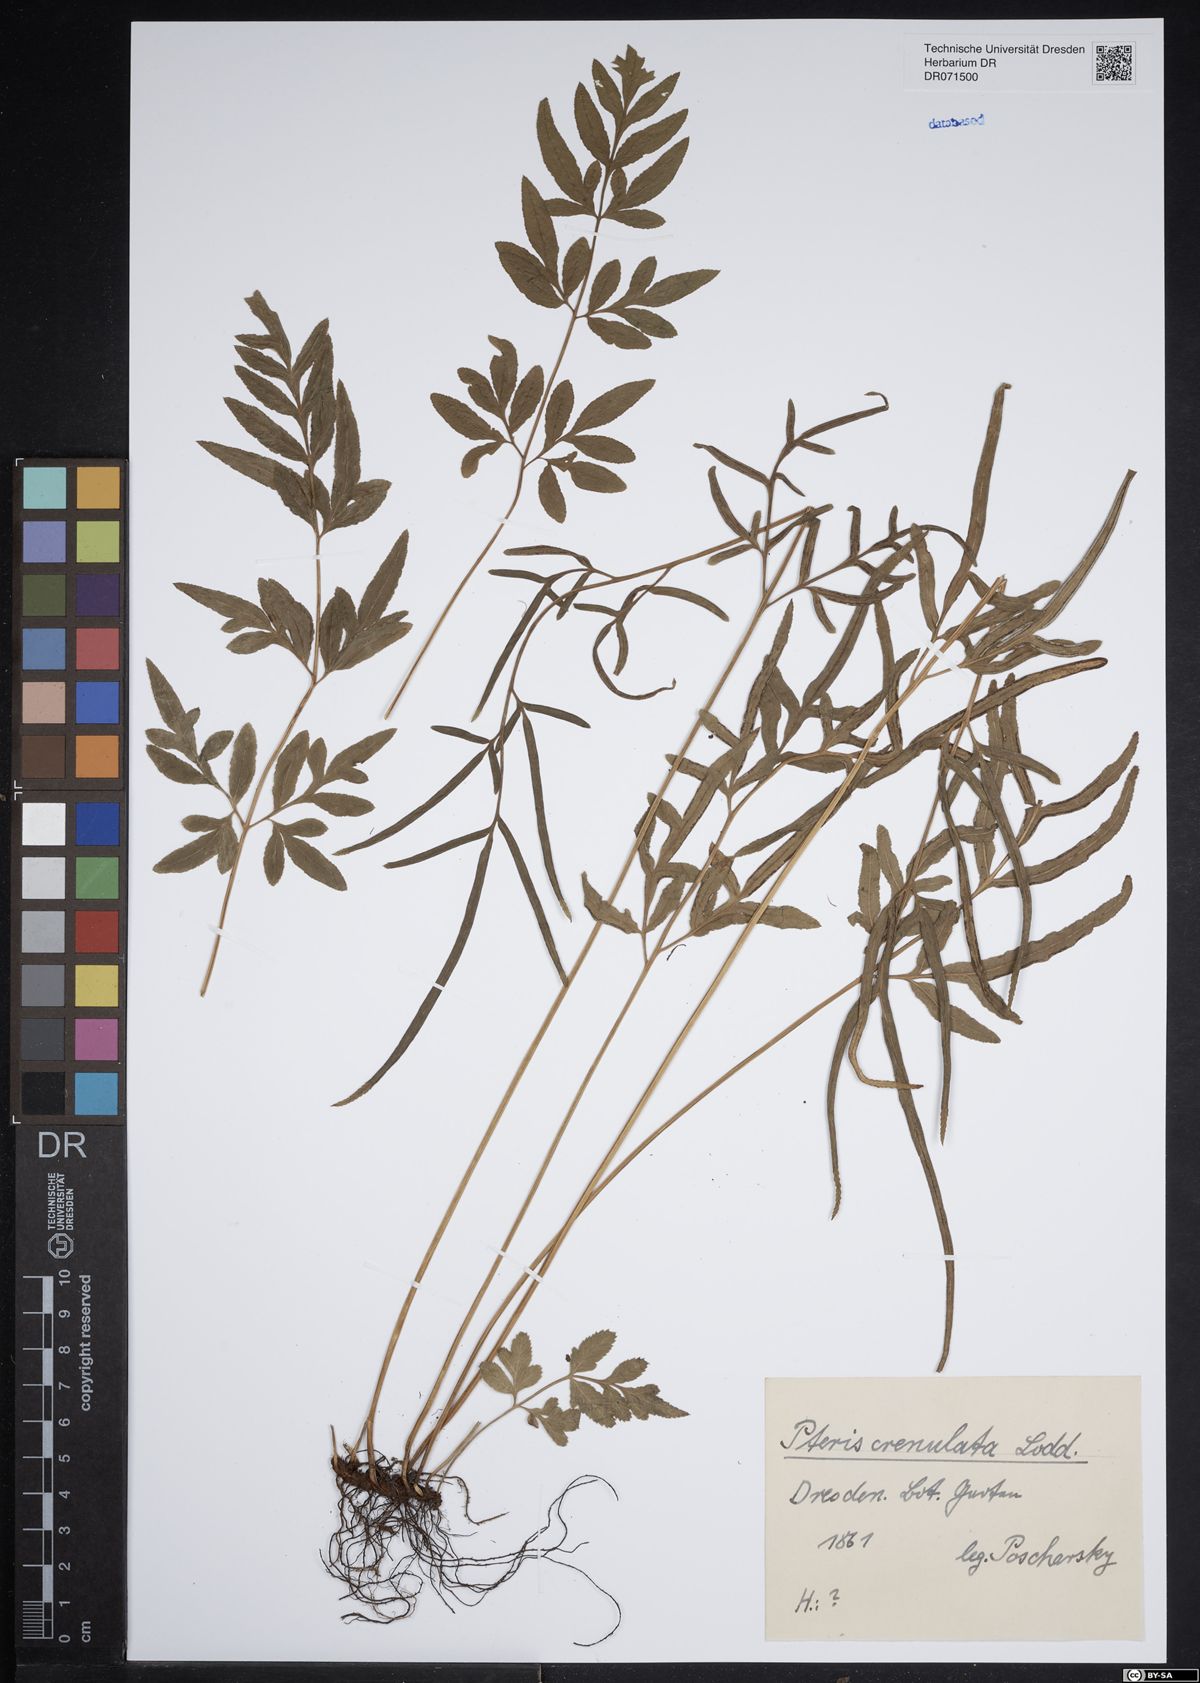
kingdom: Plantae
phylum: Tracheophyta
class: Polypodiopsida
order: Polypodiales
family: Pteridaceae
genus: Pteris
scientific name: Pteris
